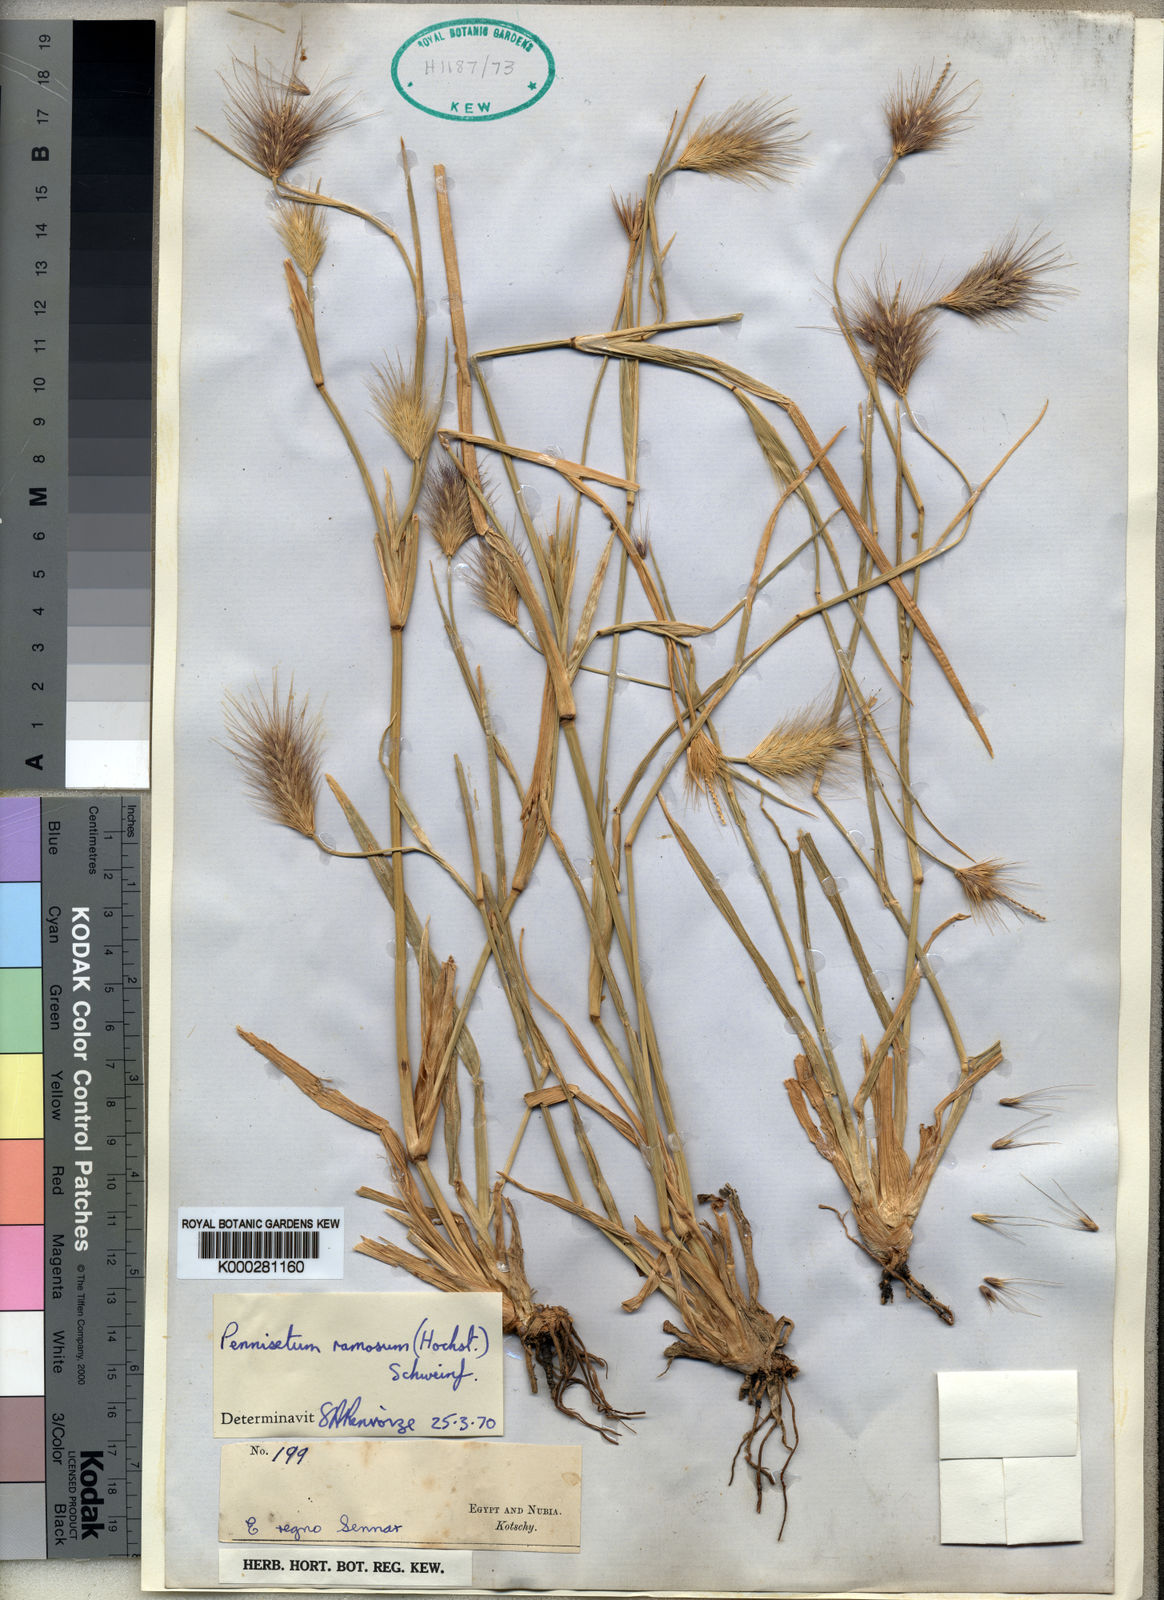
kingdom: Plantae
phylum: Tracheophyta
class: Liliopsida
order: Poales
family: Poaceae
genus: Cenchrus
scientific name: Cenchrus ramosus
